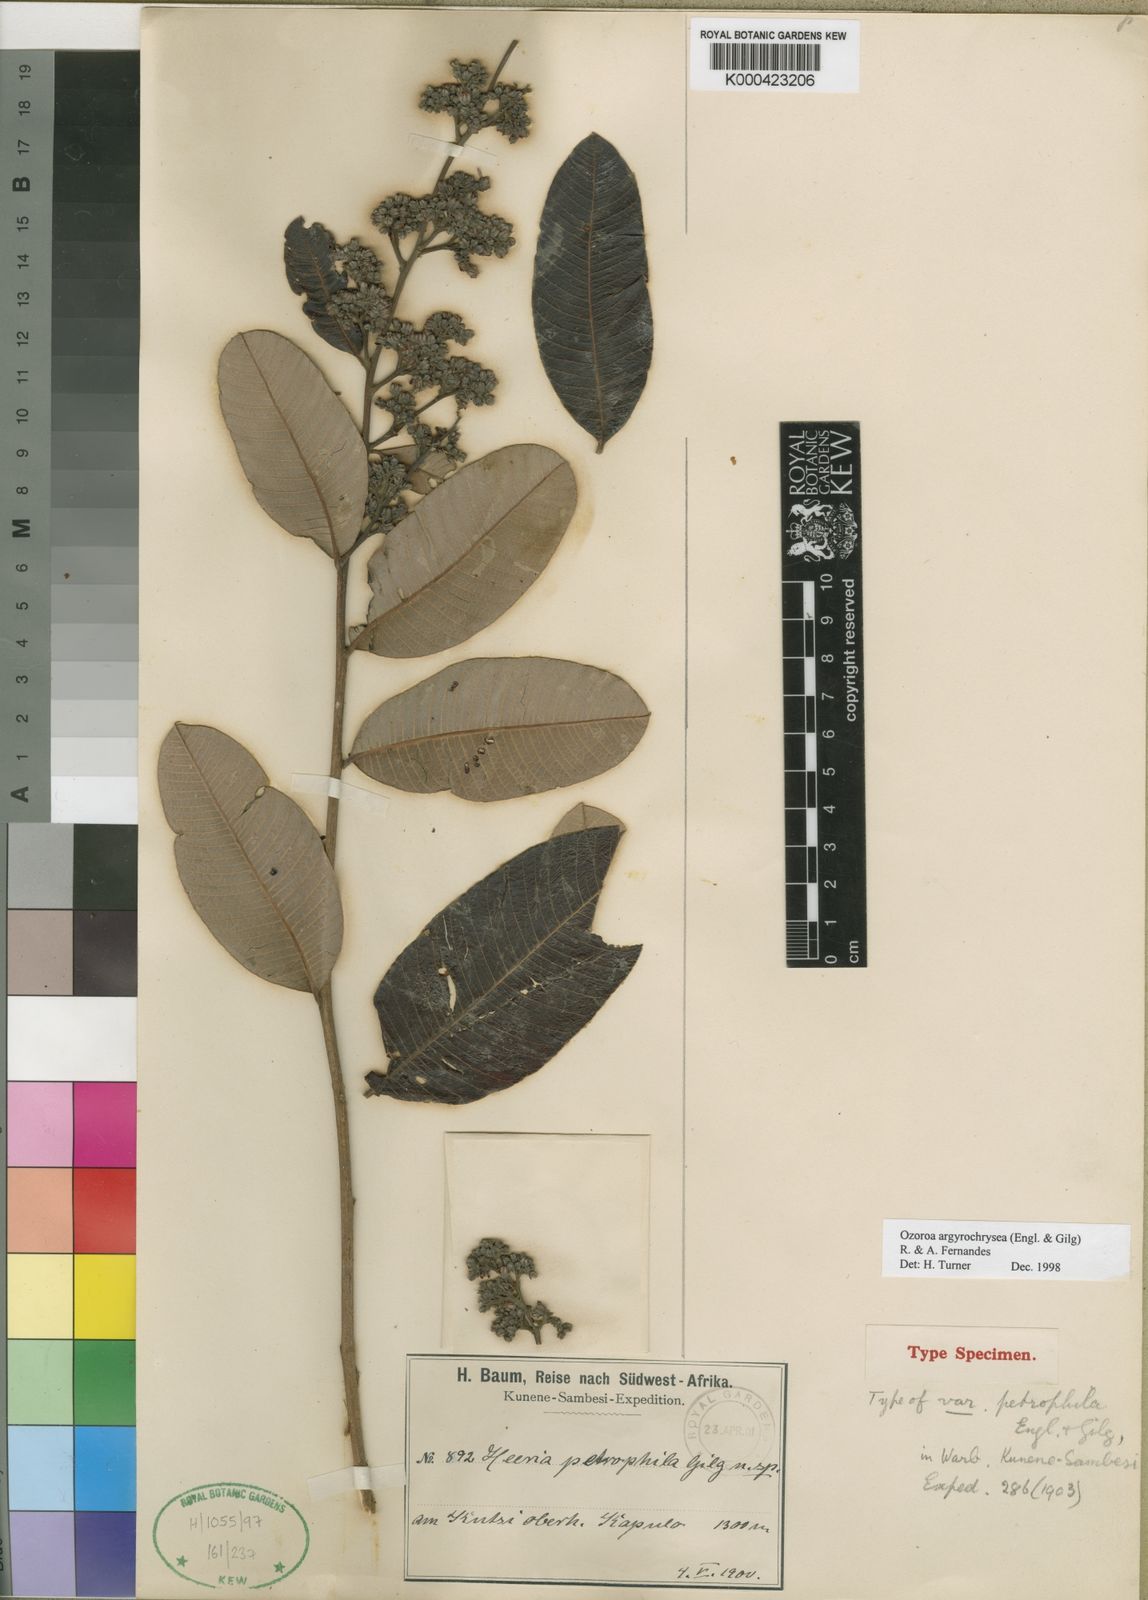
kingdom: Plantae
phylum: Tracheophyta
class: Magnoliopsida
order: Sapindales
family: Anacardiaceae
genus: Ozoroa
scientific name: Ozoroa argyrochrysea
